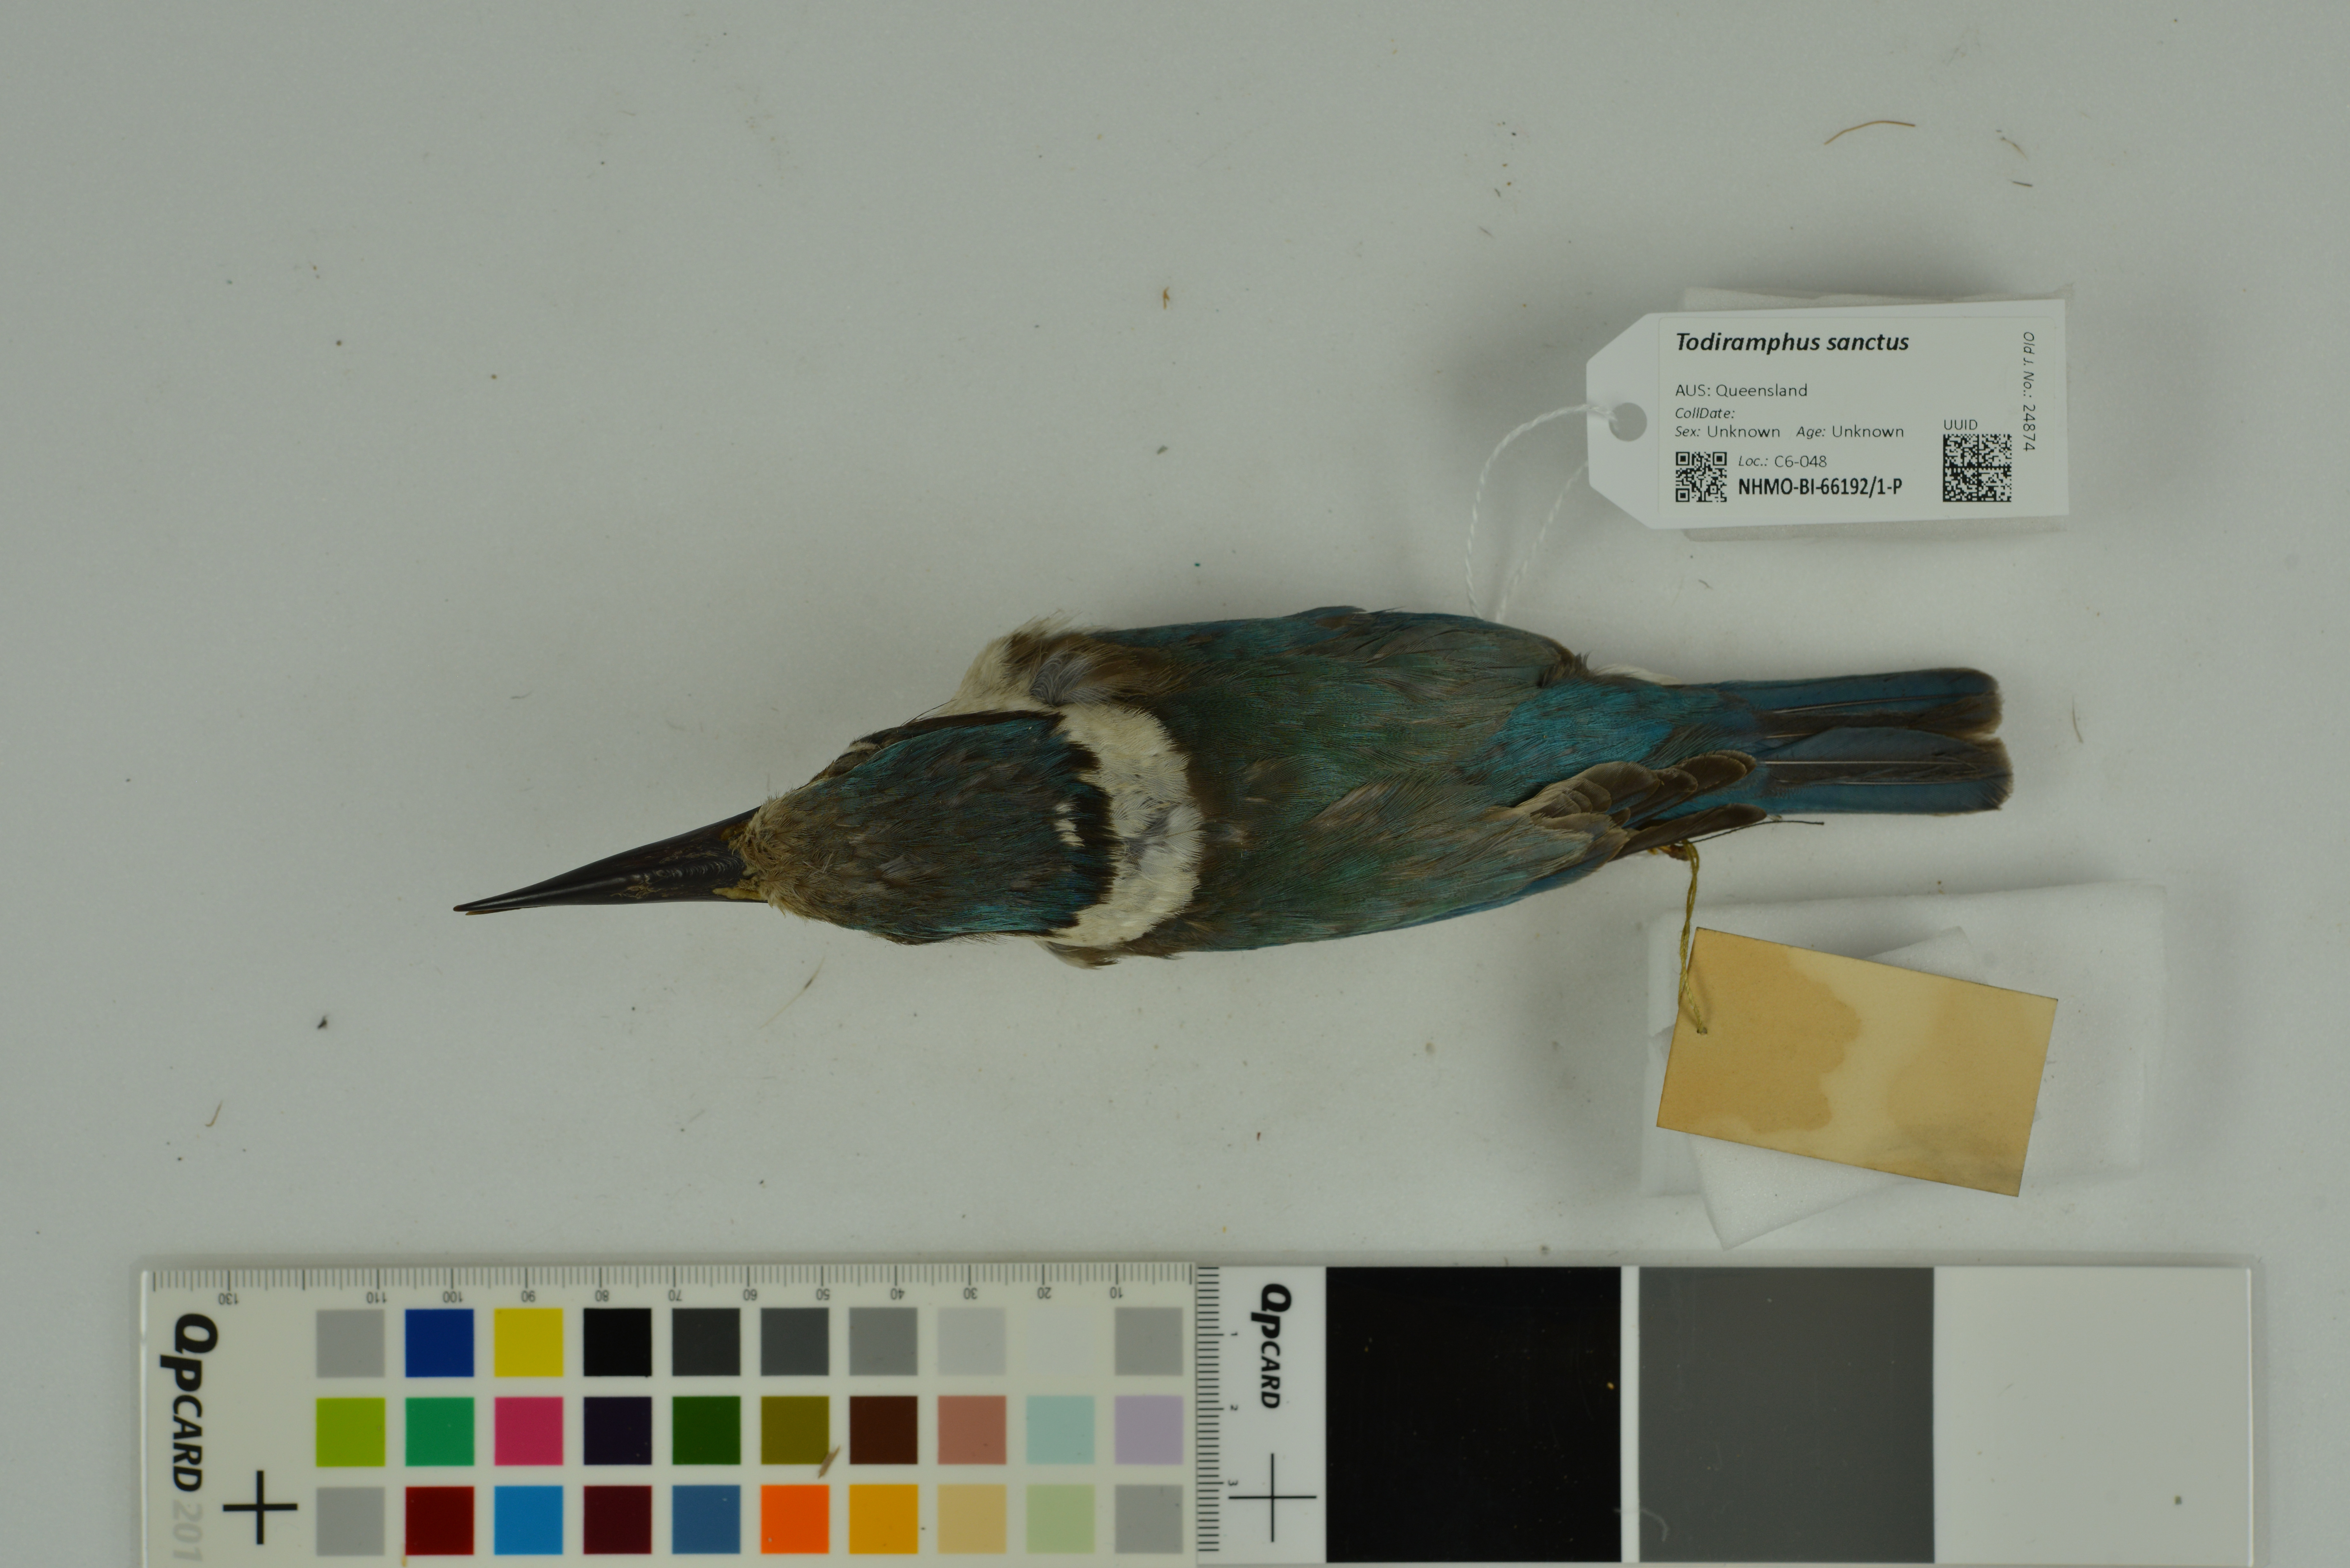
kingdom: Animalia
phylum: Chordata
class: Aves
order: Coraciiformes
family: Alcedinidae
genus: Todiramphus
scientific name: Todiramphus sanctus
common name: Sacred kingfisher
